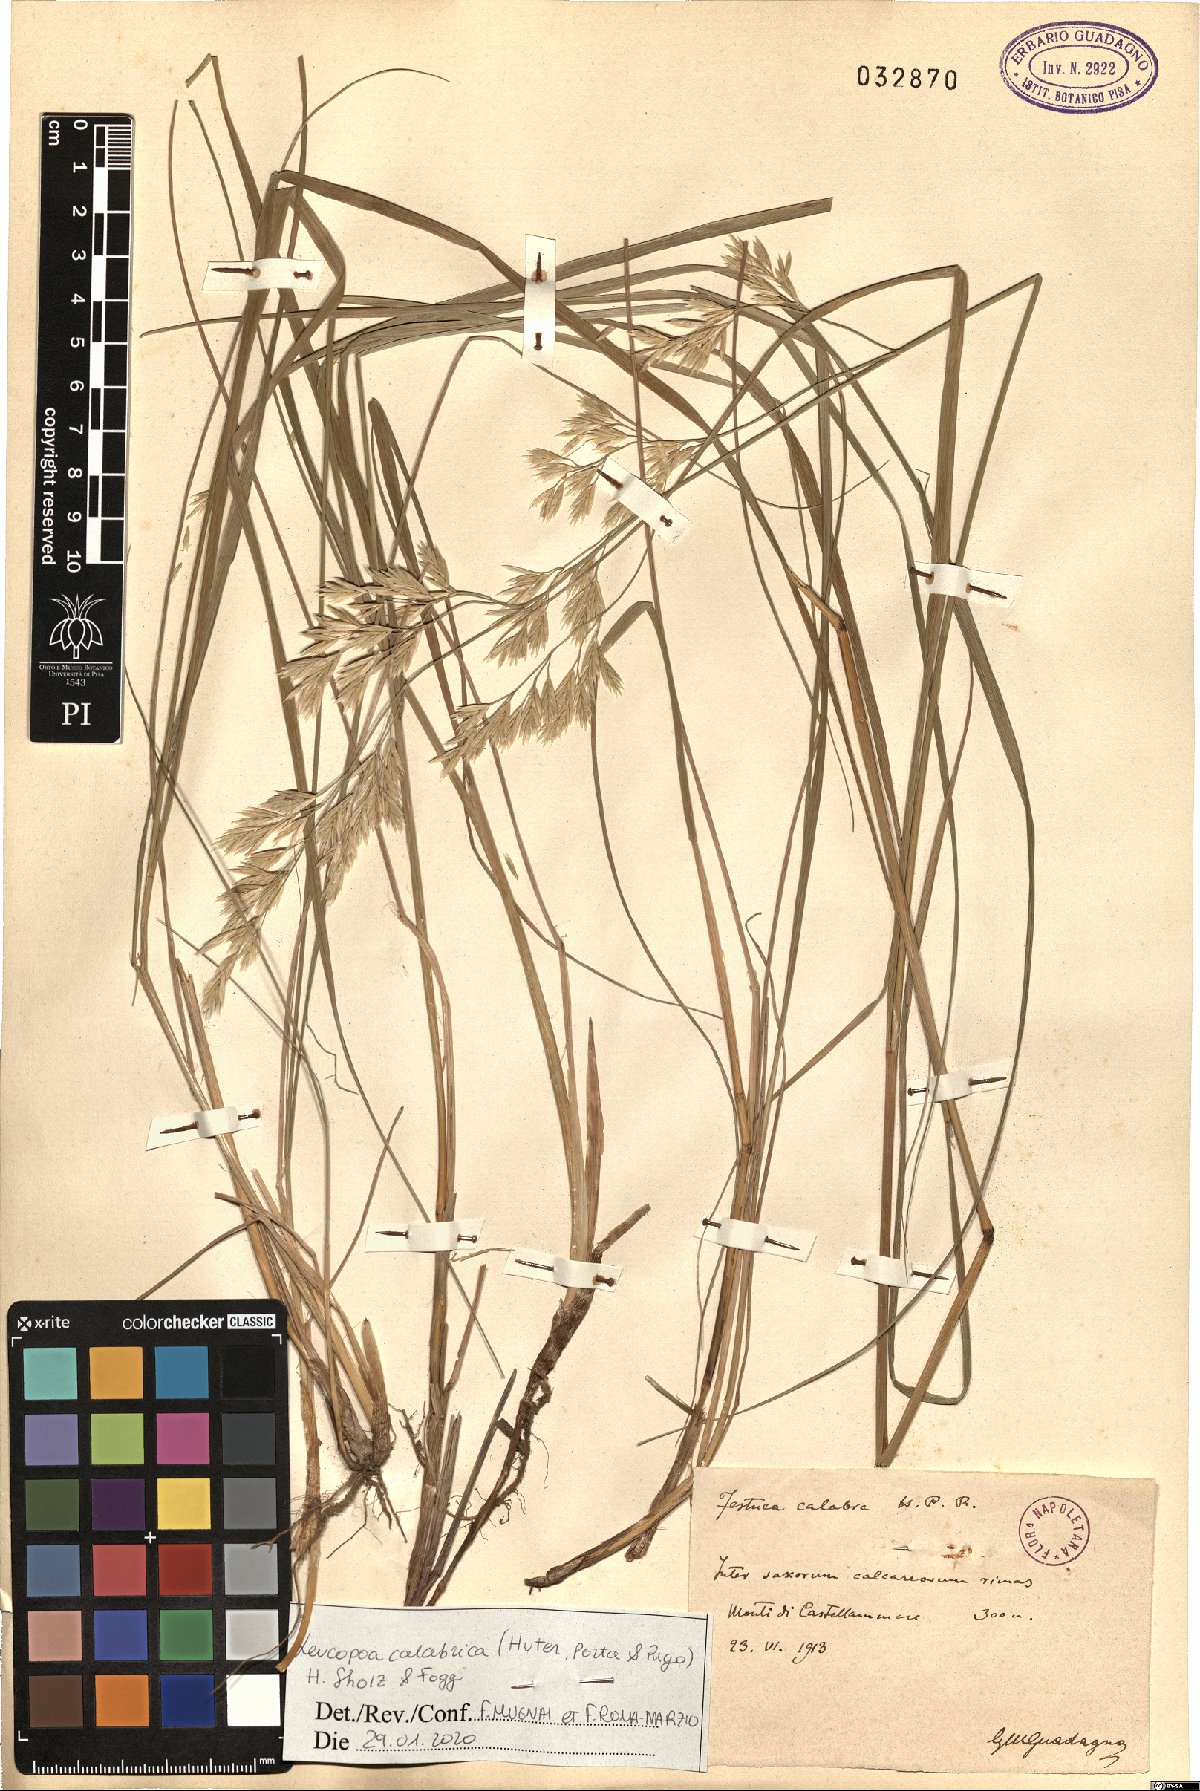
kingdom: Plantae
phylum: Tracheophyta
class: Liliopsida
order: Poales
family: Poaceae
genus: Festuca
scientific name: Festuca calabrica
